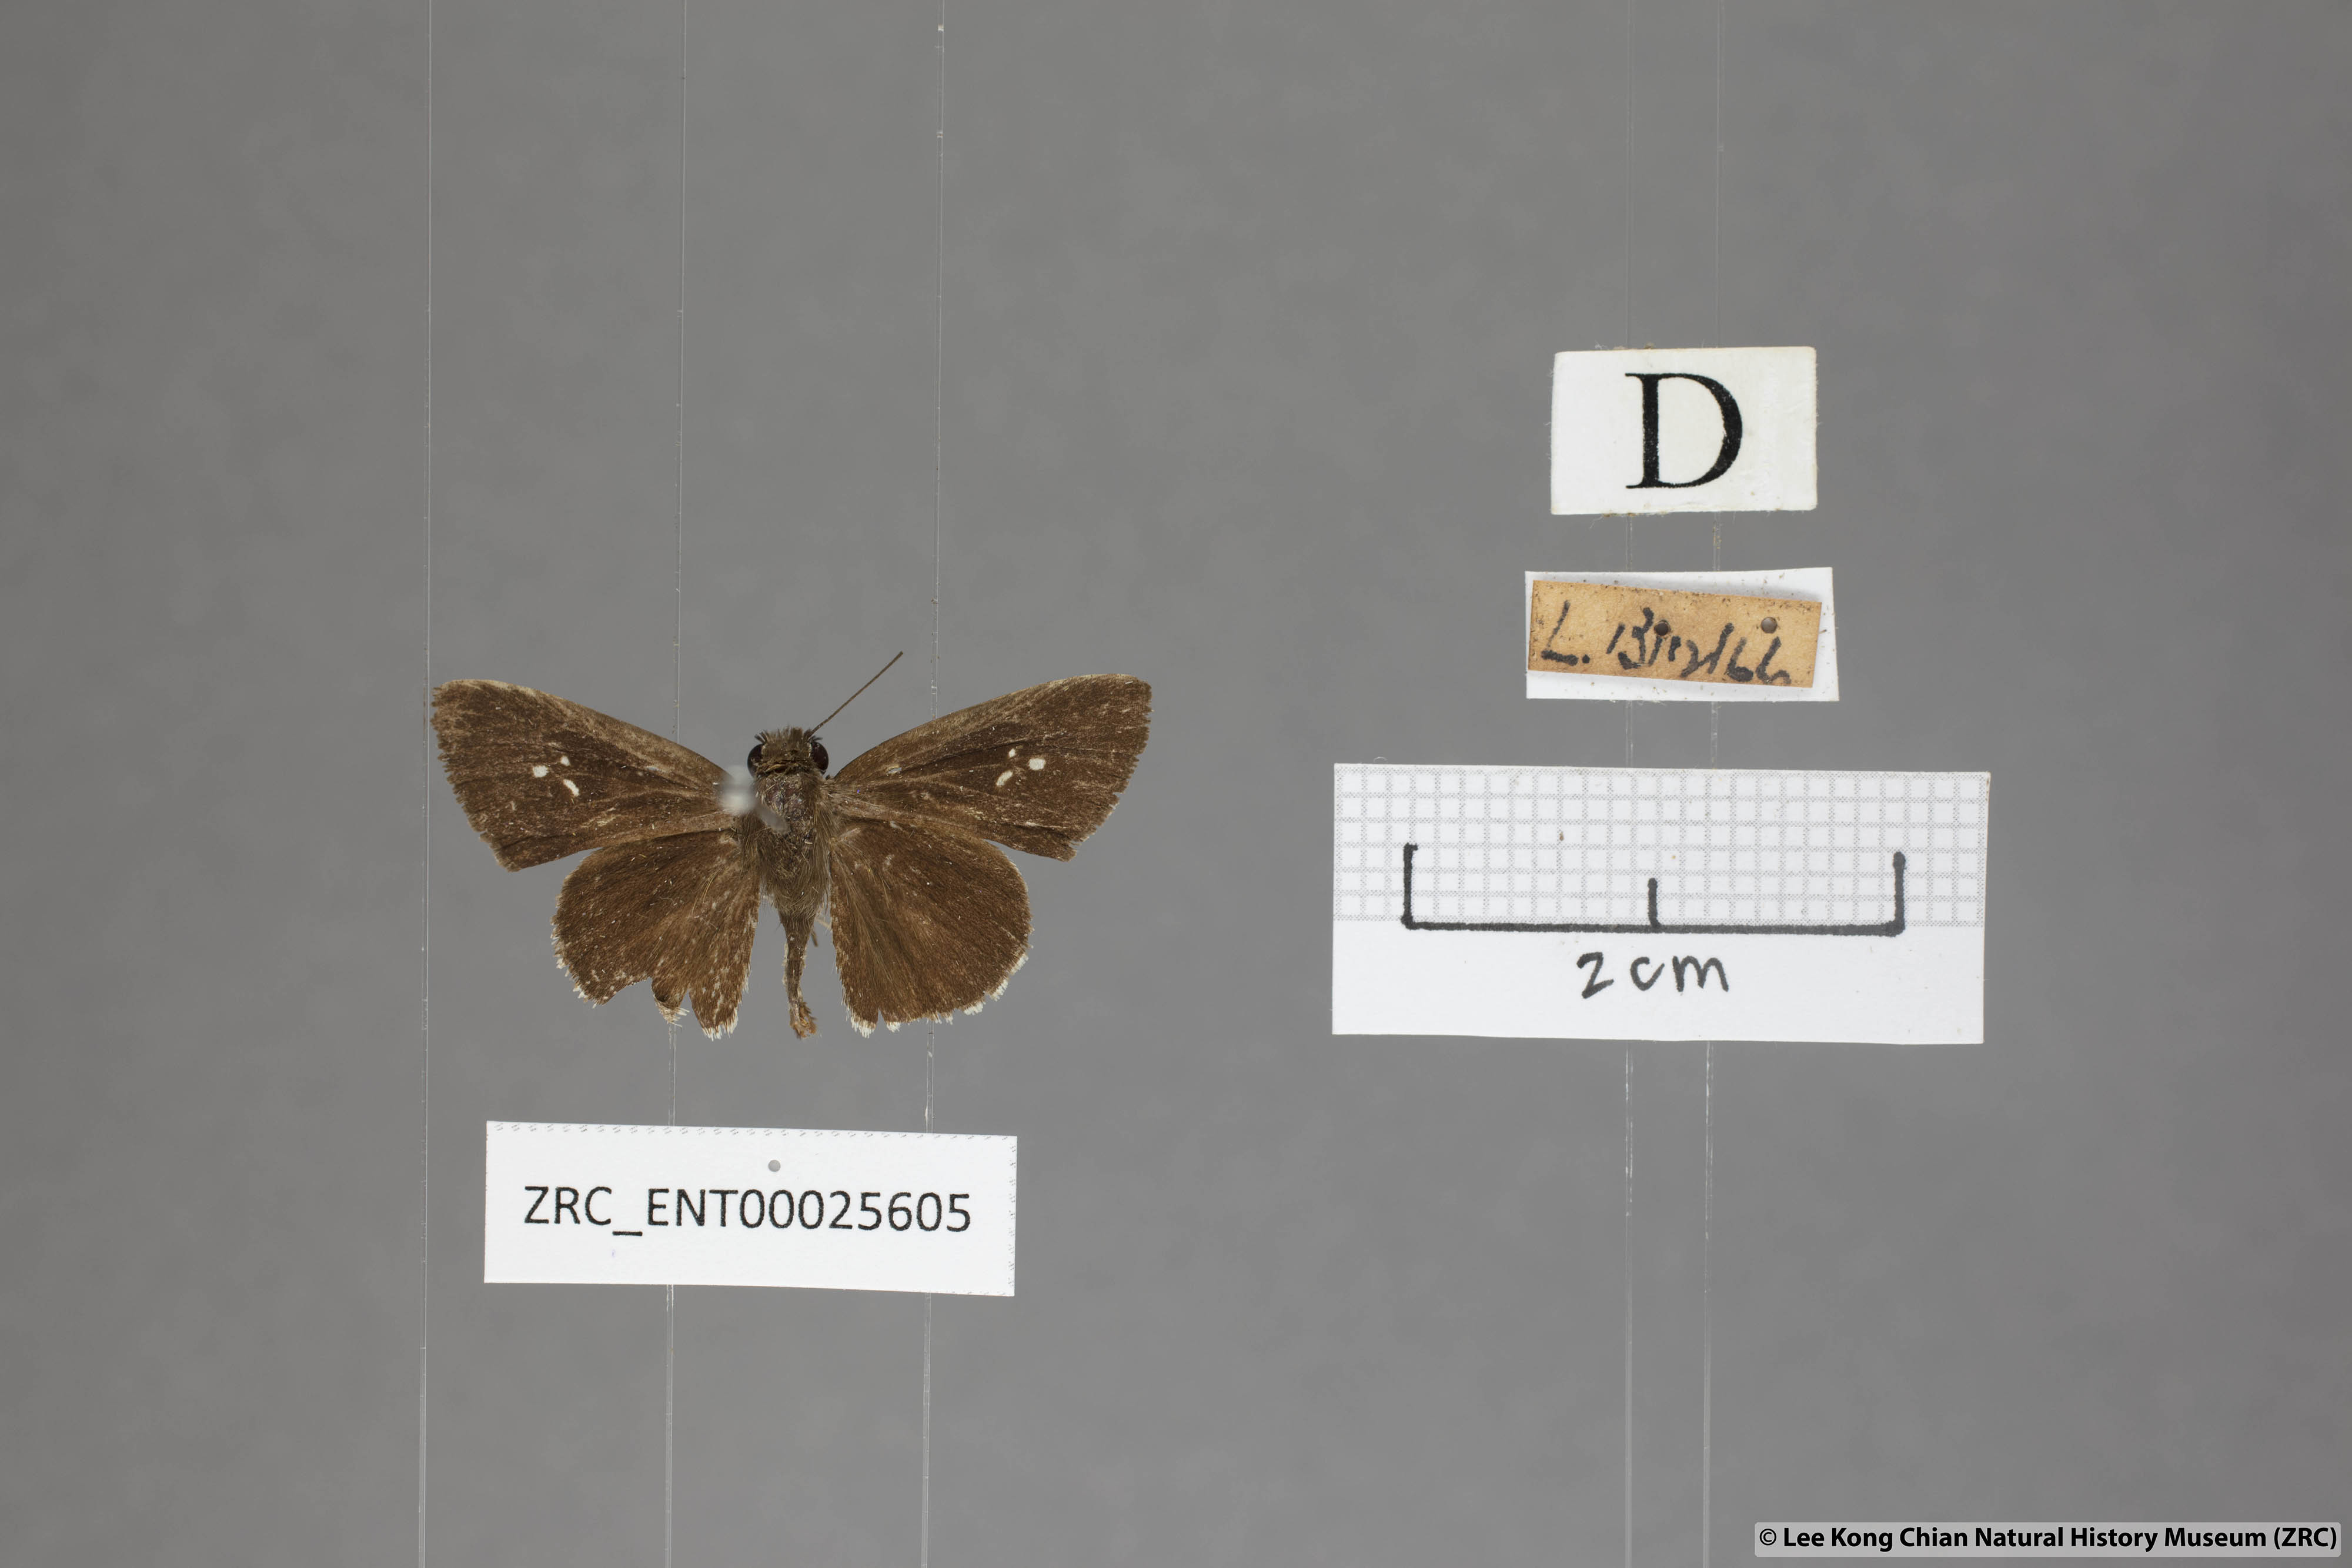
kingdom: Animalia
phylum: Arthropoda
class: Insecta
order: Lepidoptera
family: Hesperiidae
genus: Suastus
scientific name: Suastus minuta
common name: Small palm bob
